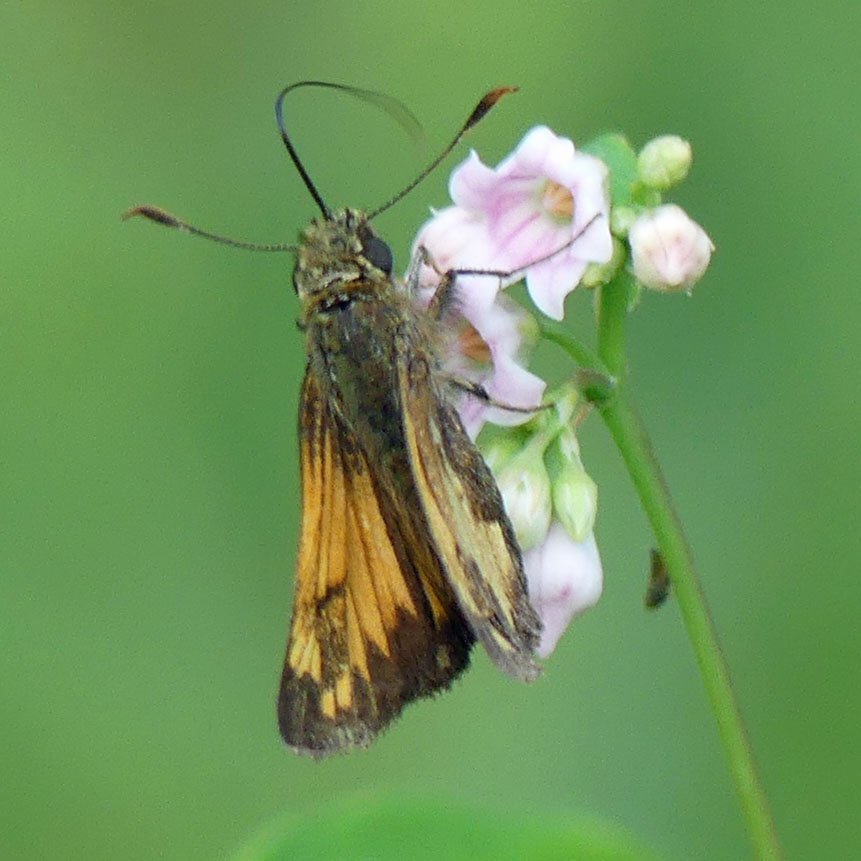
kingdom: Animalia
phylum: Arthropoda
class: Insecta
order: Lepidoptera
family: Hesperiidae
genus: Lon
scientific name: Lon hobomok
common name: Hobomok Skipper
